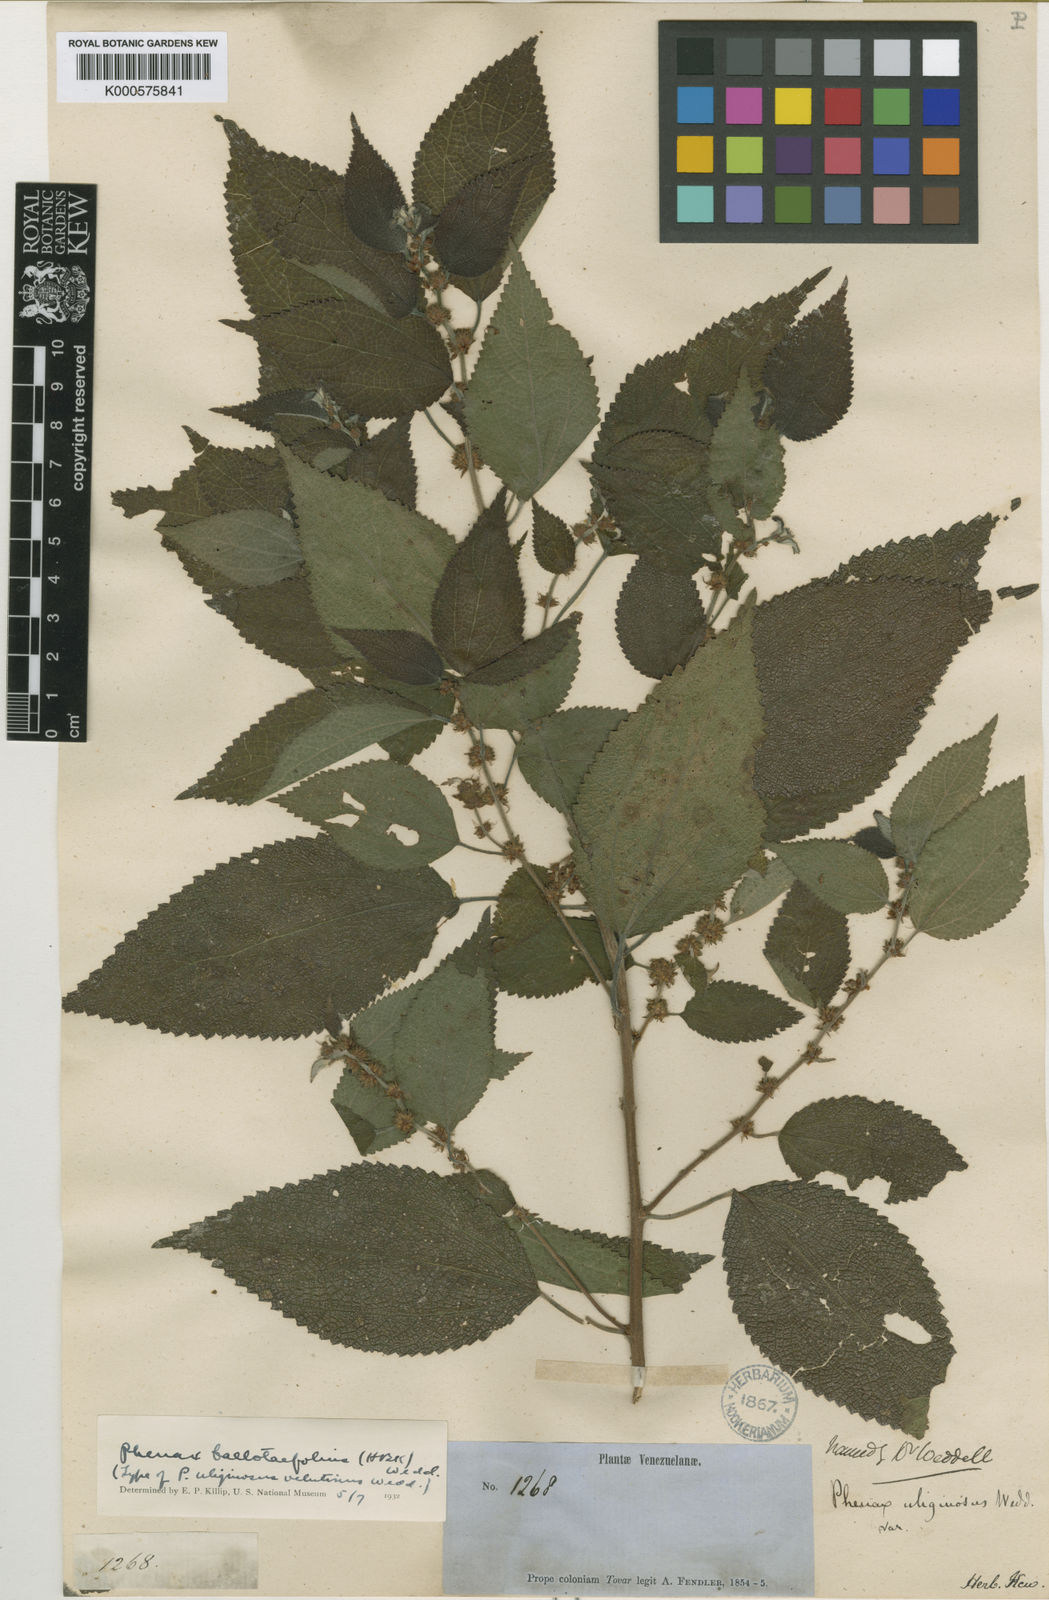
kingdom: Plantae
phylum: Tracheophyta
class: Magnoliopsida
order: Rosales
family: Urticaceae
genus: Phenax
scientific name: Phenax uliginosus
